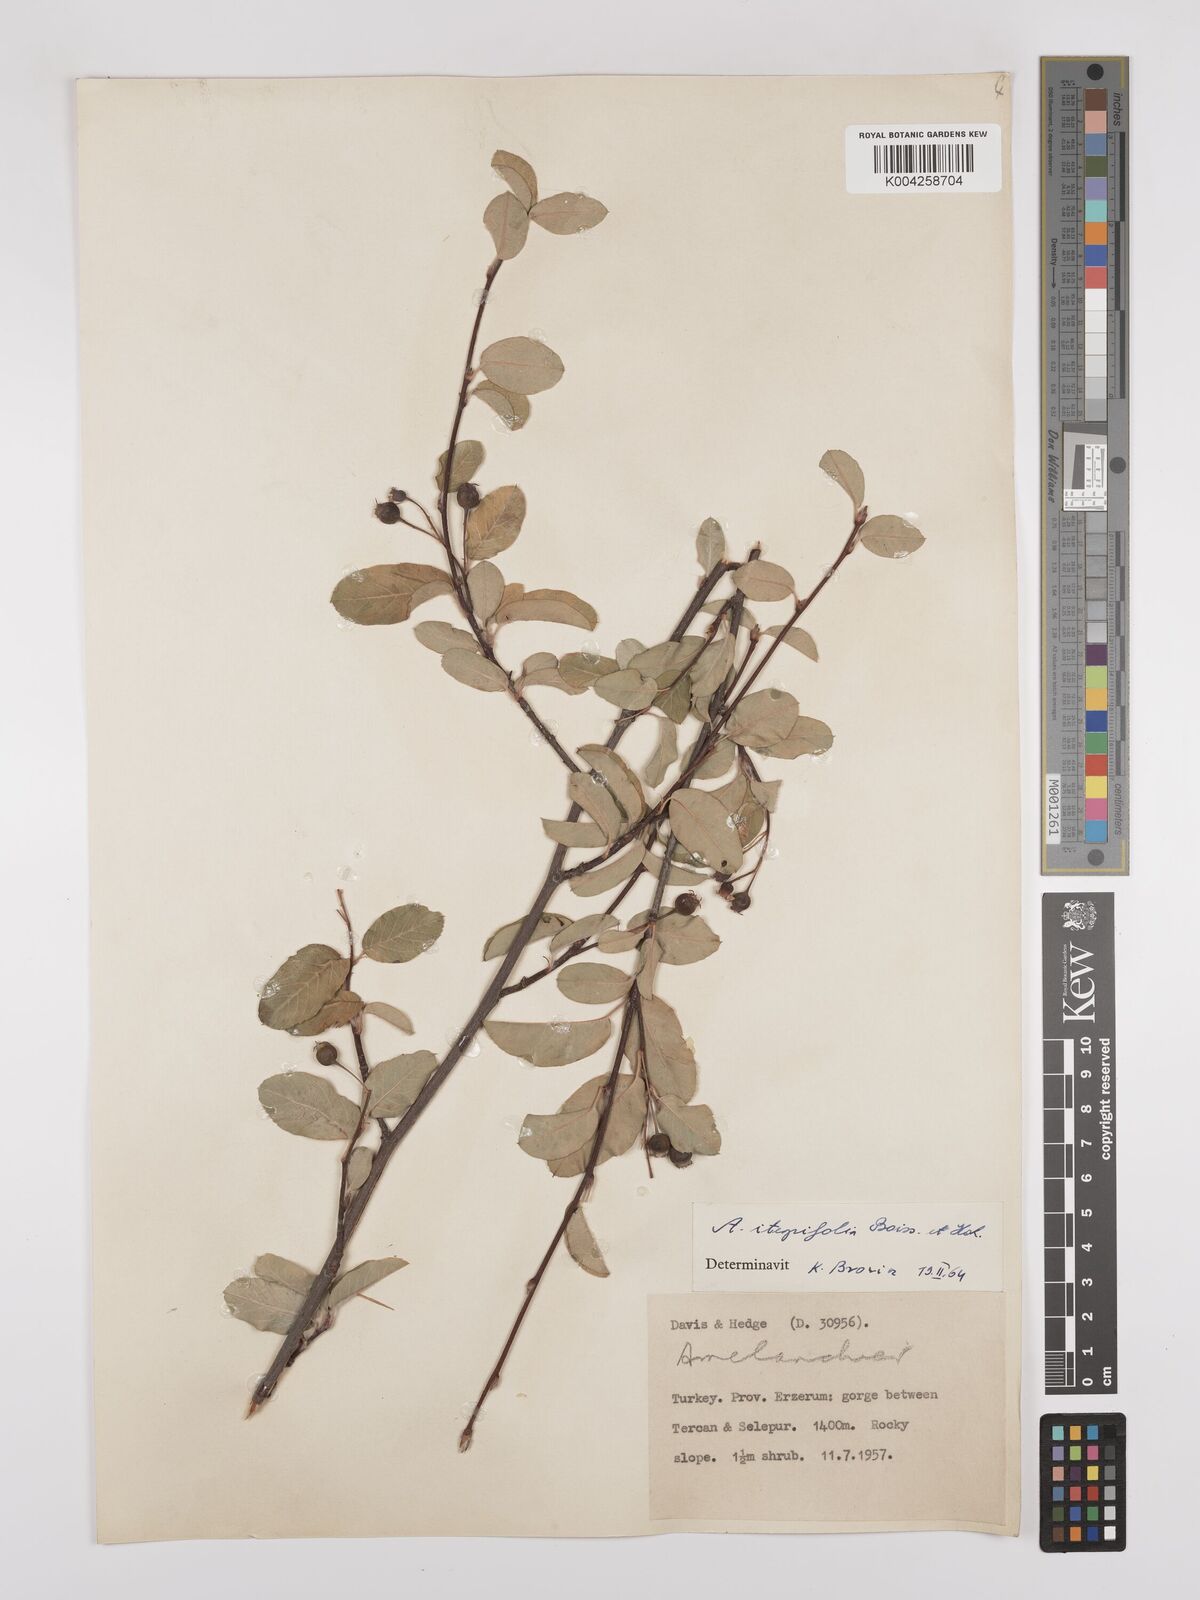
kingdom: Plantae
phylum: Tracheophyta
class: Magnoliopsida
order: Rosales
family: Rosaceae
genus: Amelanchier
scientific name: Amelanchier ovalis
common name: Serviceberry
